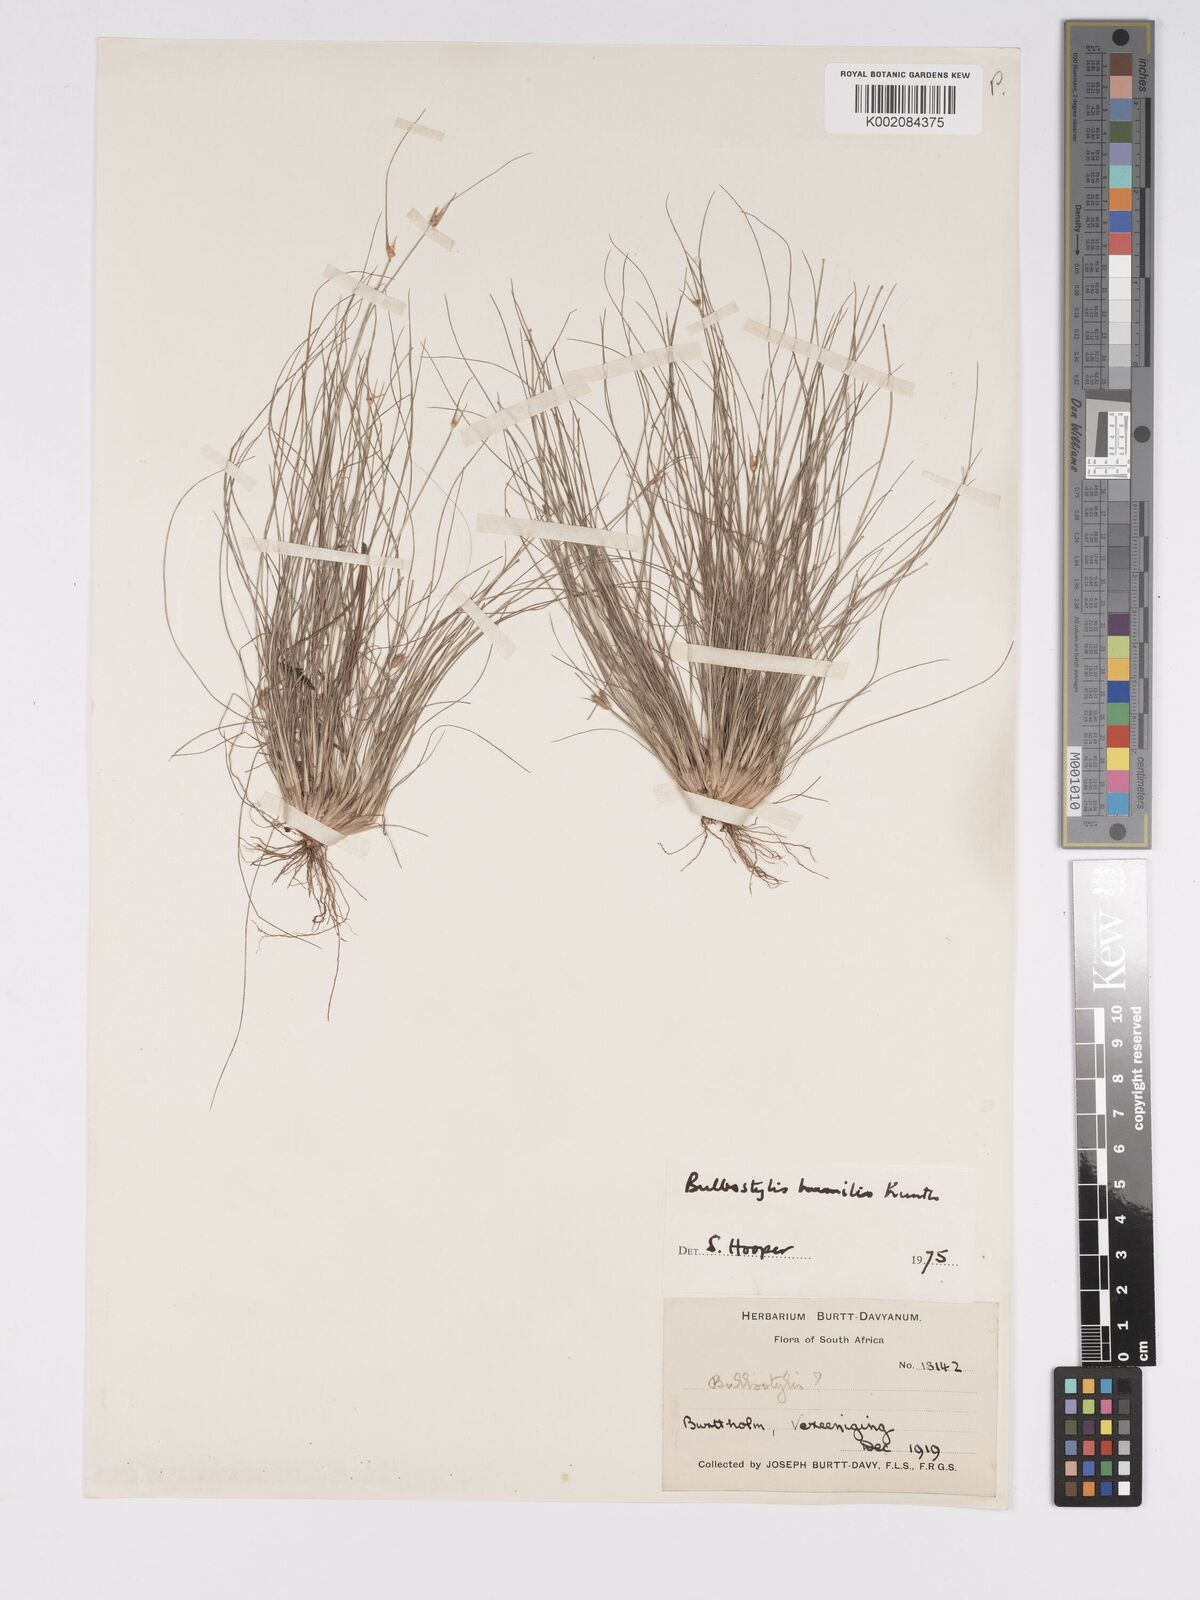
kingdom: Plantae
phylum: Tracheophyta
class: Liliopsida
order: Poales
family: Cyperaceae
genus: Bulbostylis
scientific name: Bulbostylis humilis
